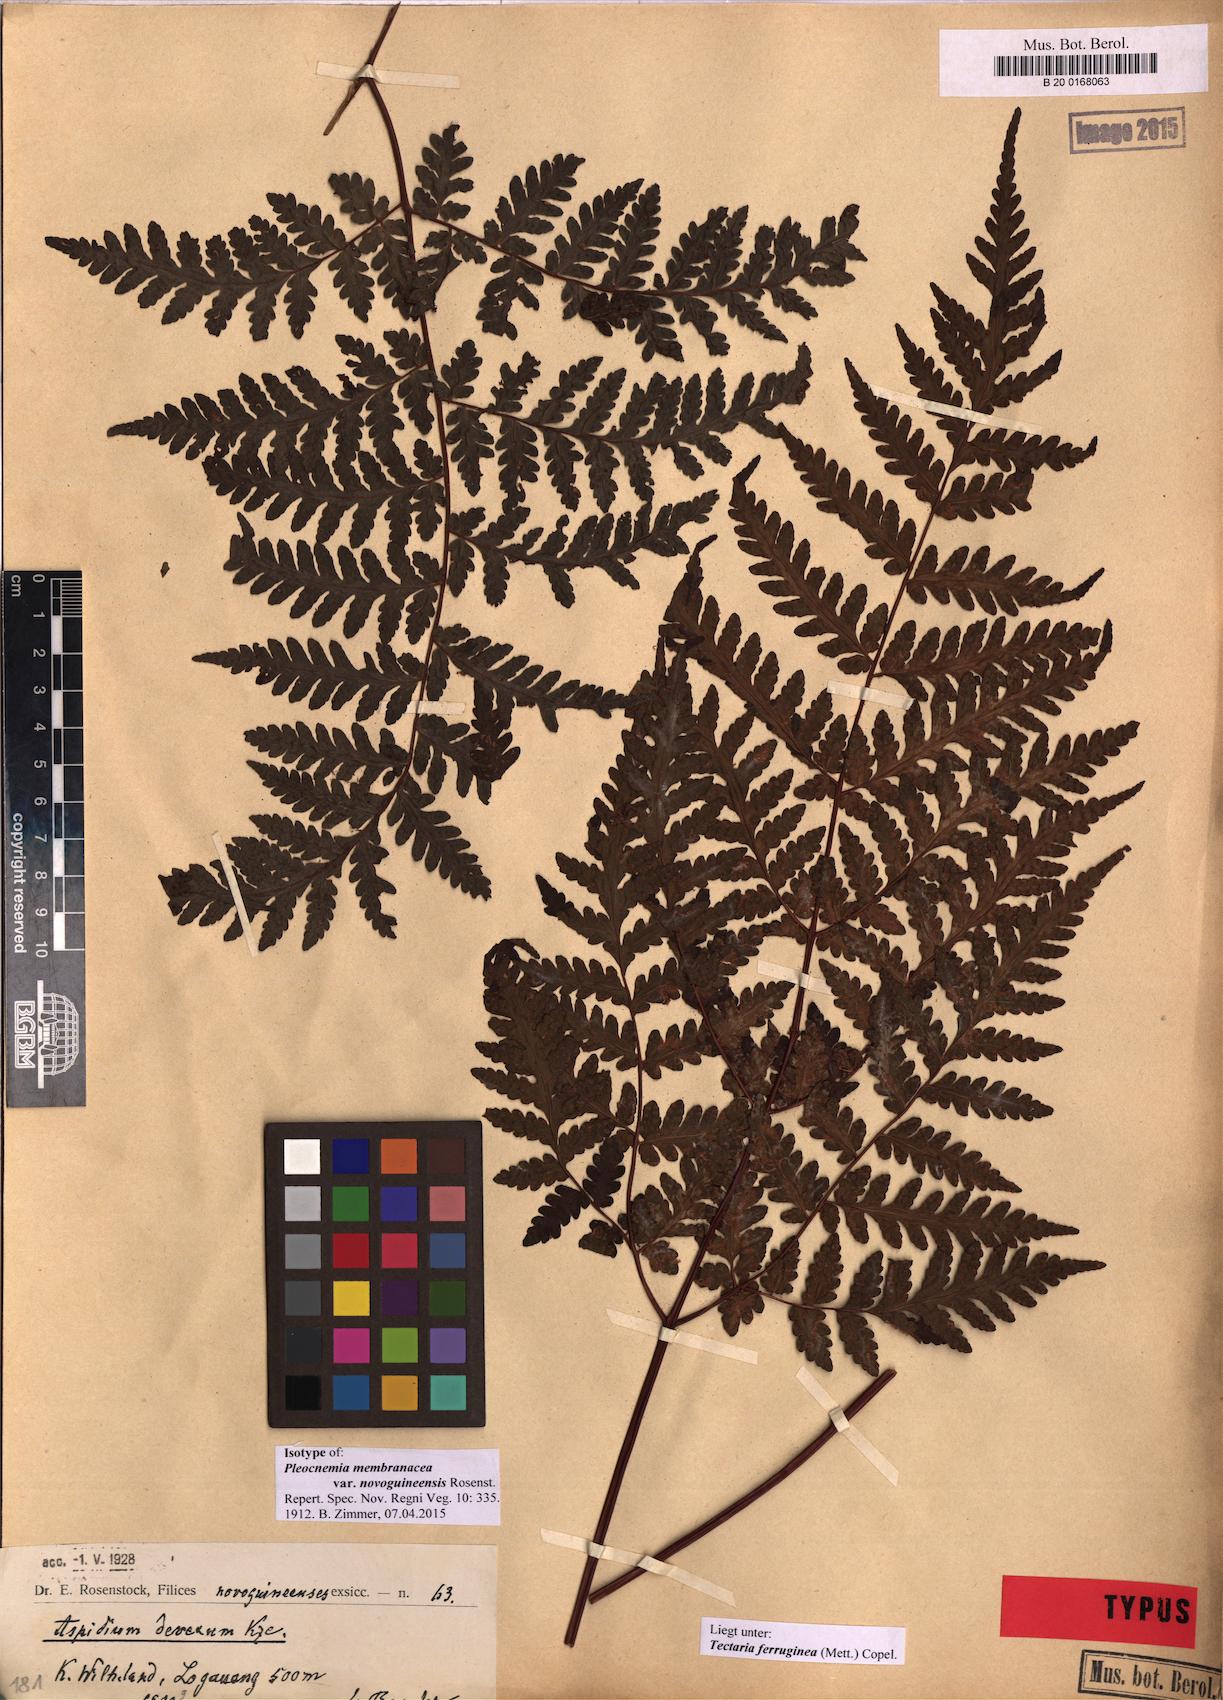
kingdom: Plantae
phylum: Tracheophyta
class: Polypodiopsida
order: Polypodiales
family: Tectariaceae
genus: Tectaria
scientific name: Tectaria gymnocarpa
